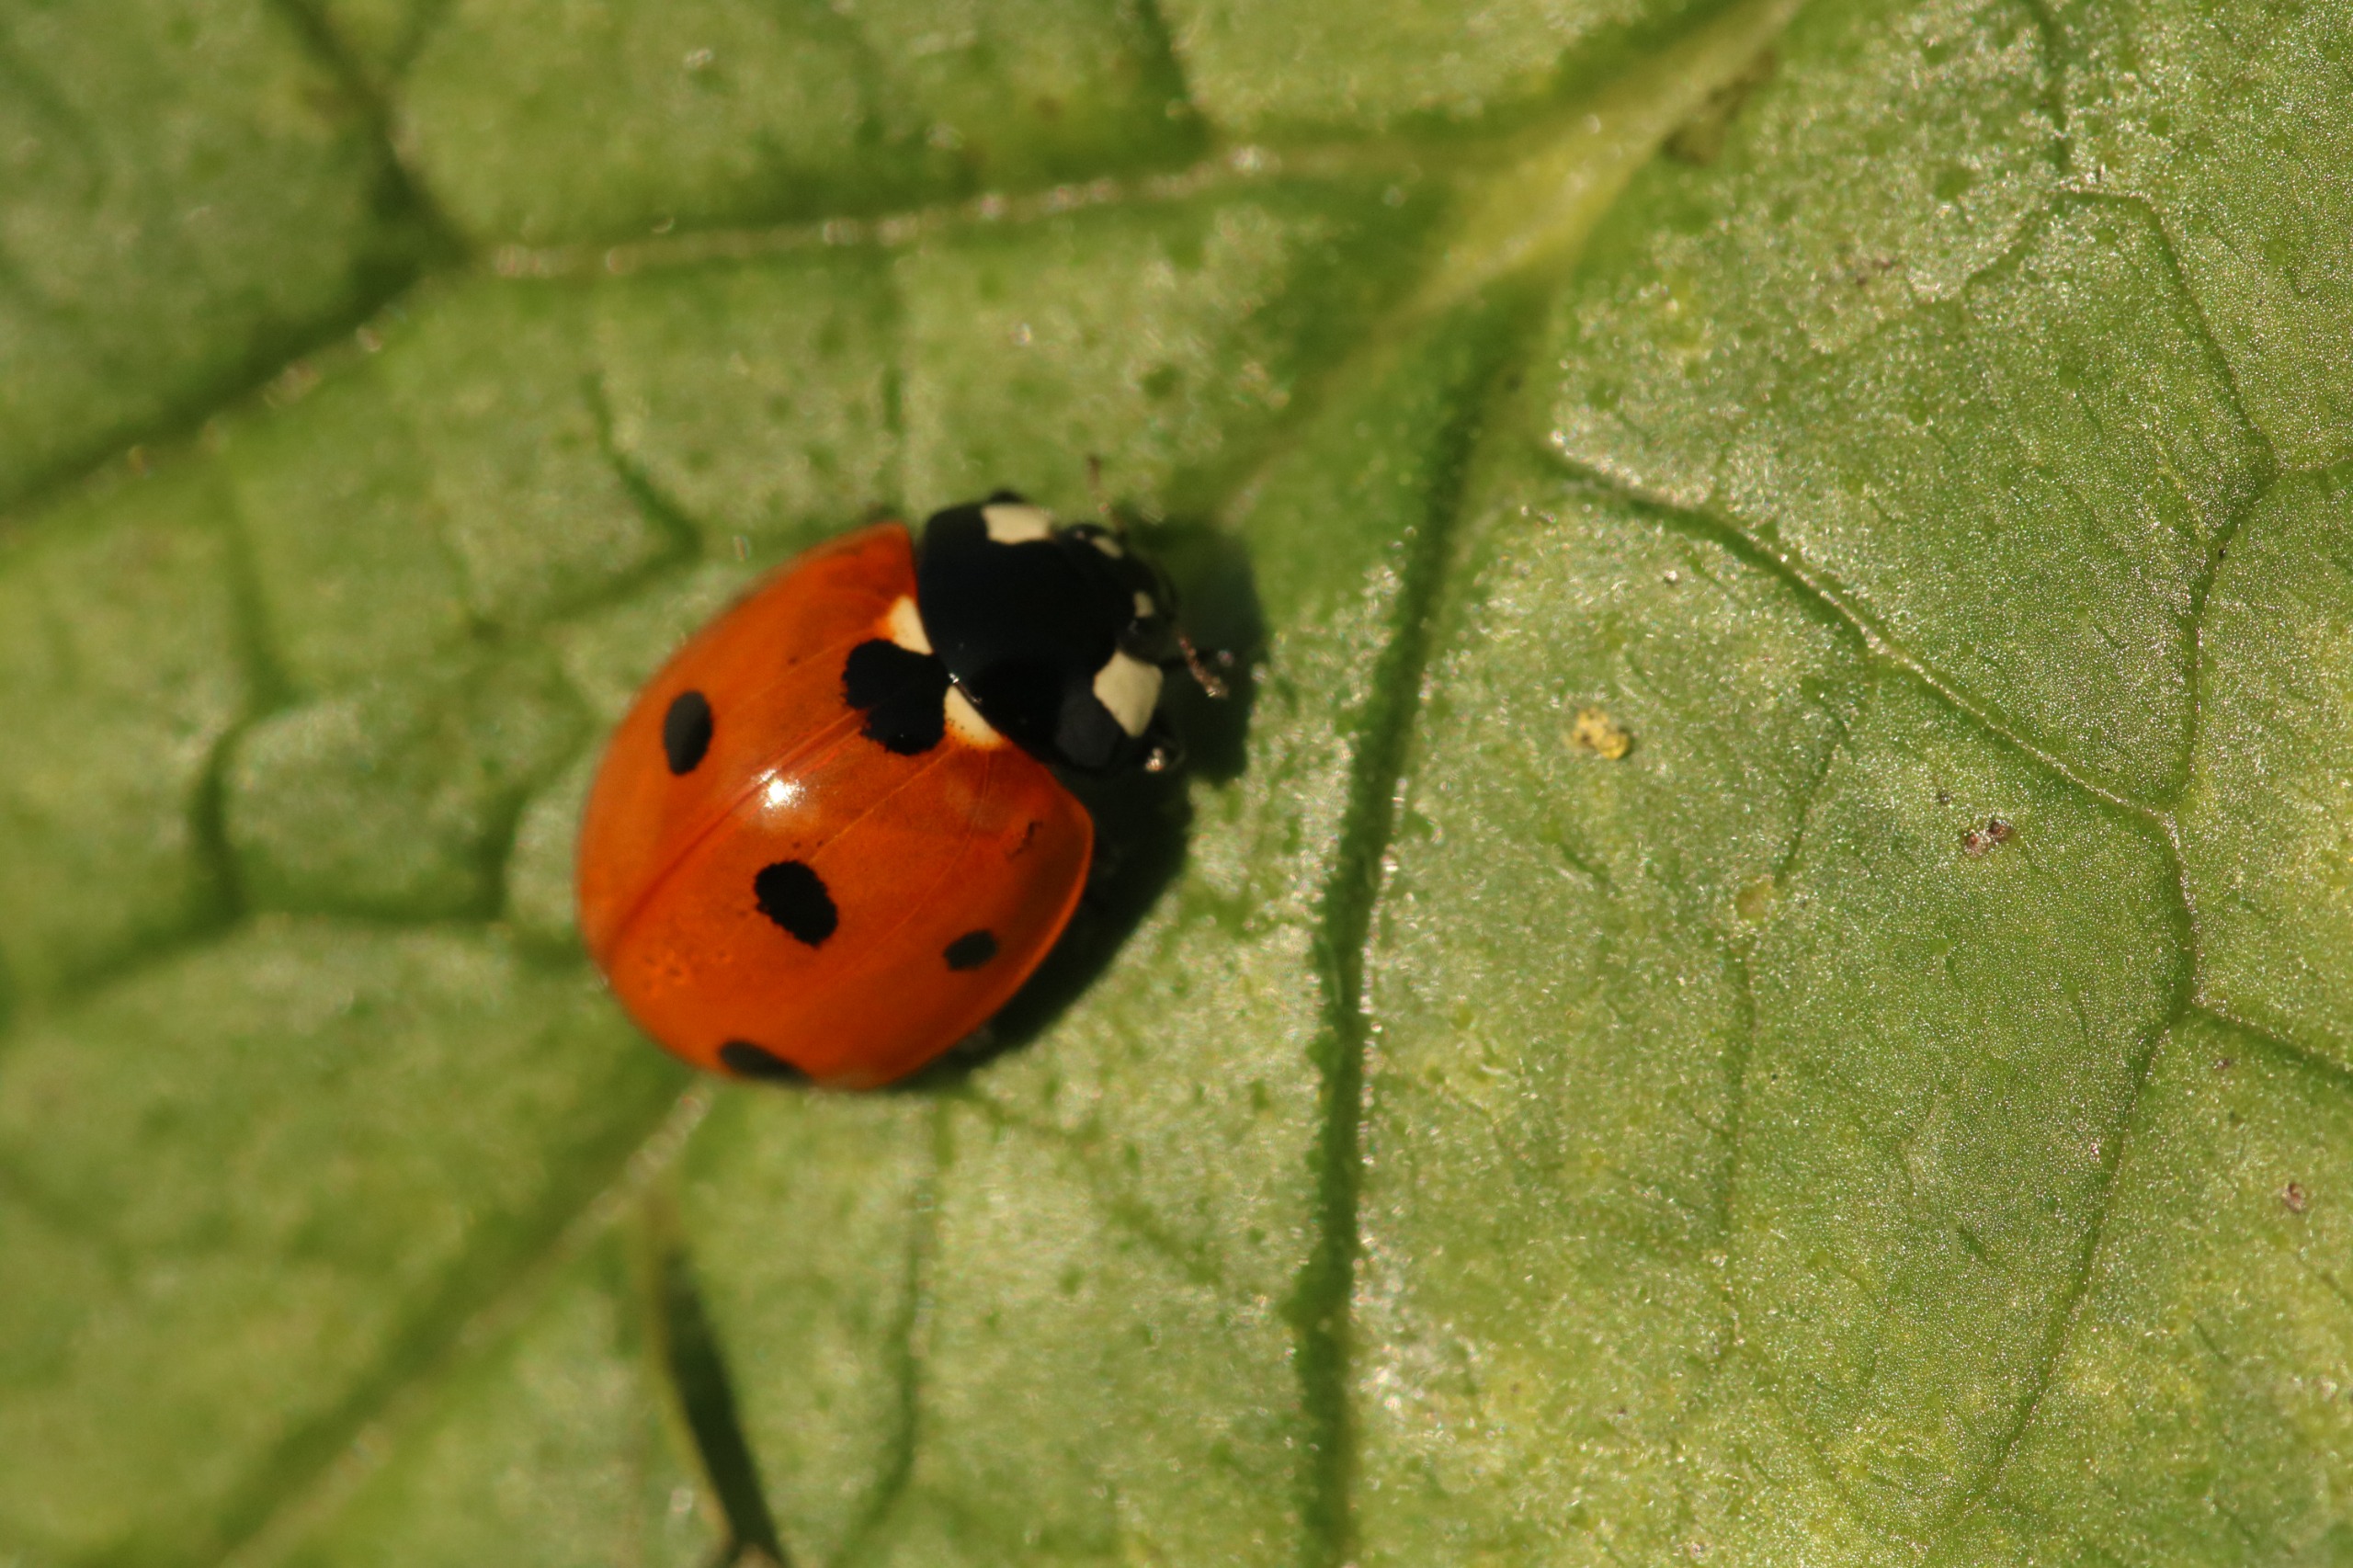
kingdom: Animalia
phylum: Arthropoda
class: Insecta
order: Coleoptera
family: Coccinellidae
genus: Coccinella
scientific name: Coccinella septempunctata
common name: Syvplettet mariehøne
